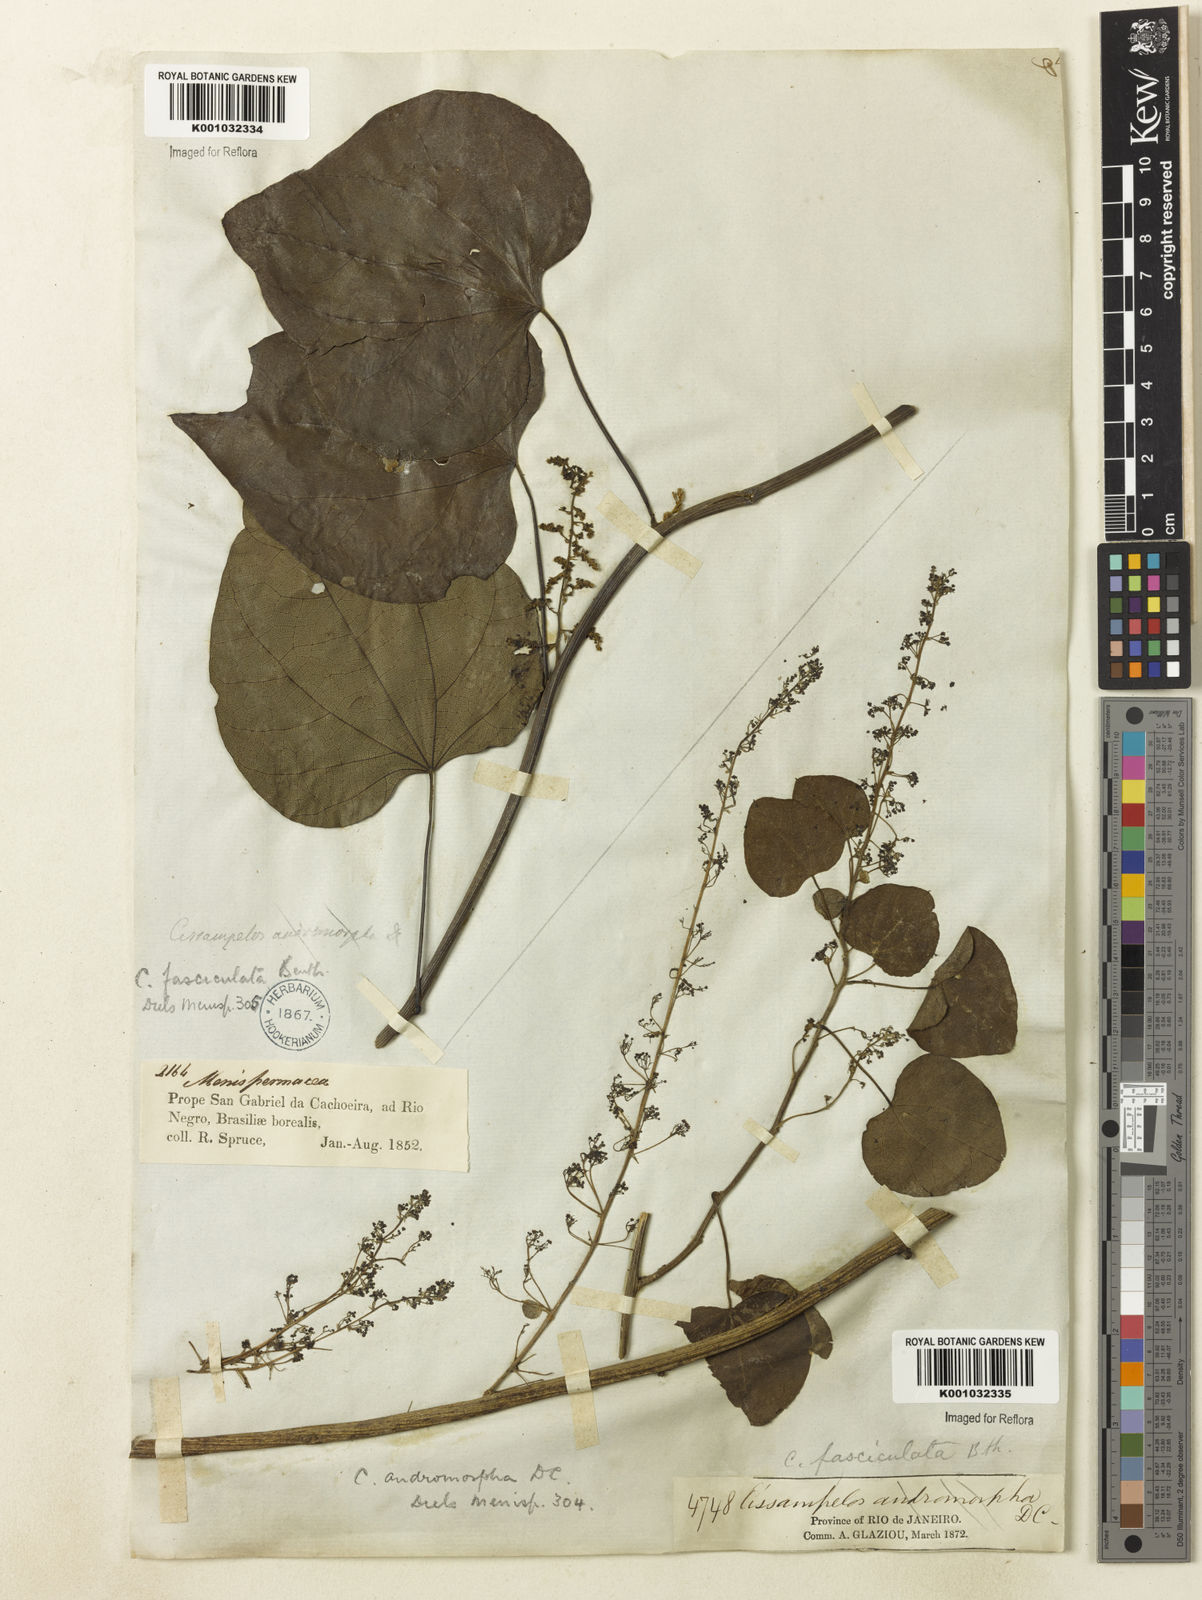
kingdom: Plantae
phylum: Tracheophyta
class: Magnoliopsida
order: Ranunculales
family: Menispermaceae
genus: Cissampelos
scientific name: Cissampelos fasciculata
